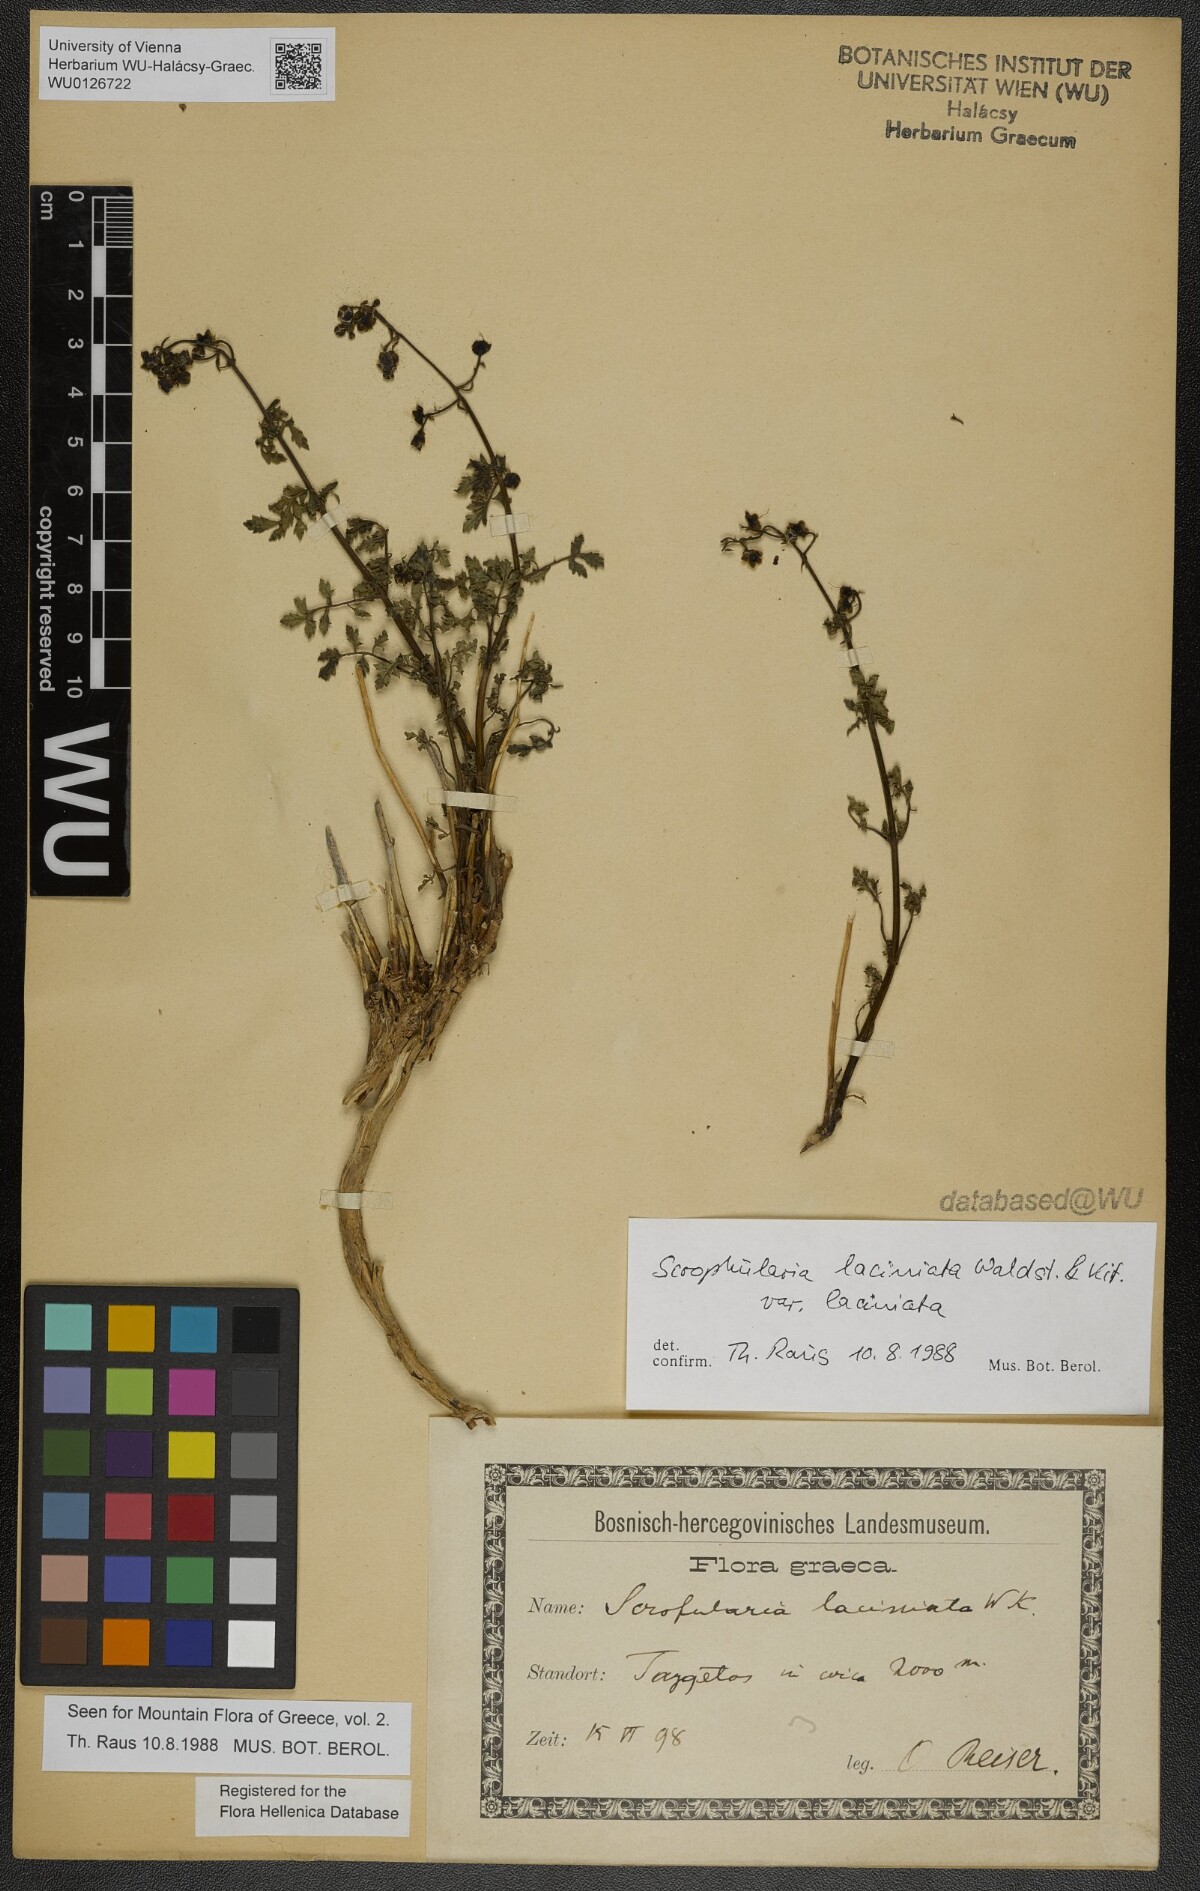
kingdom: Plantae
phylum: Tracheophyta
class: Magnoliopsida
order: Lamiales
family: Scrophulariaceae
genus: Scrophularia
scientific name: Scrophularia laciniata
